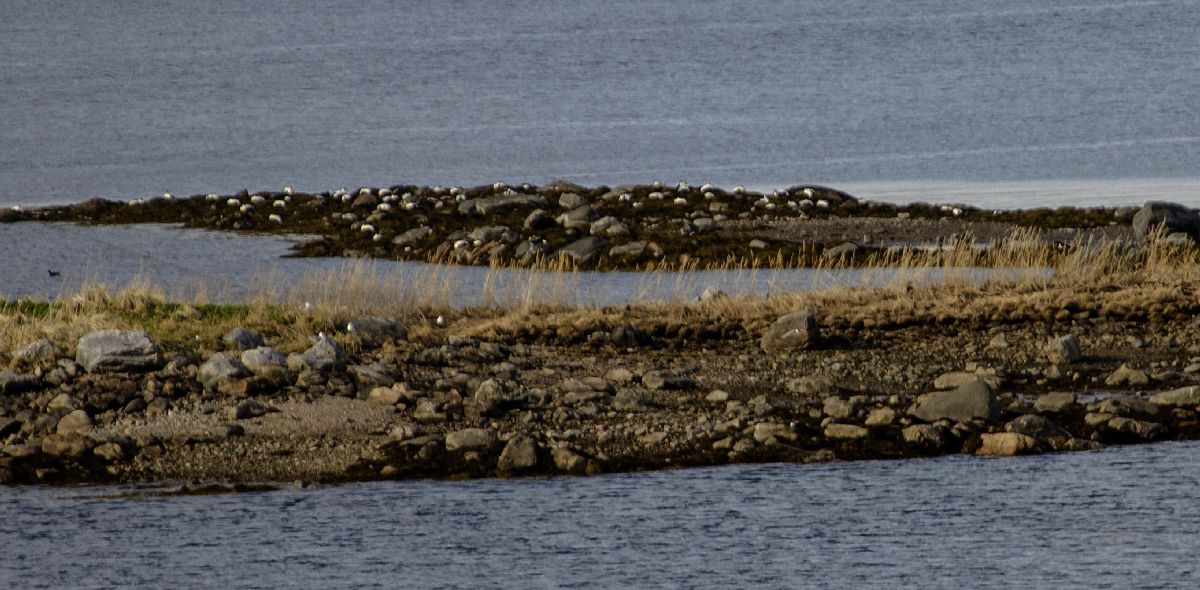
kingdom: Animalia
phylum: Chordata
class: Aves
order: Anseriformes
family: Anatidae
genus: Somateria
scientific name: Somateria mollissima
